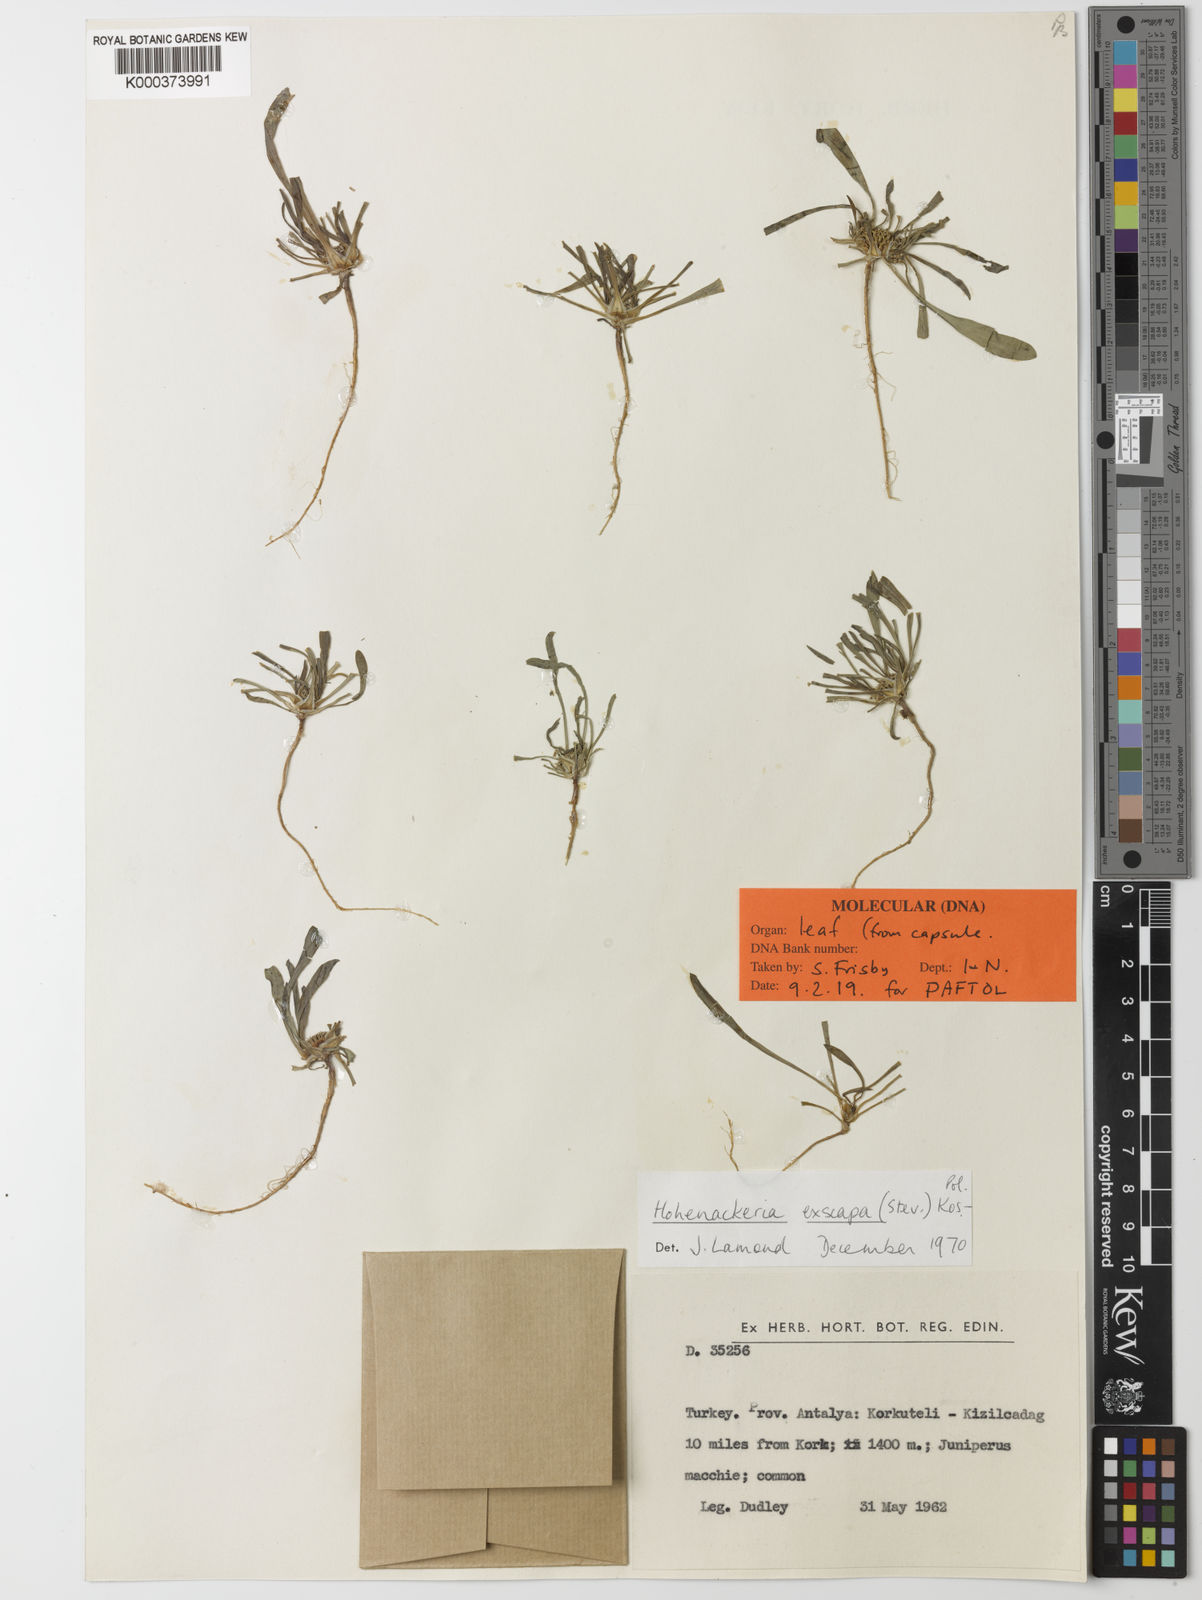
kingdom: Plantae
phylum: Tracheophyta
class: Magnoliopsida
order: Apiales
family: Apiaceae
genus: Hohenackeria
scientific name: Hohenackeria
